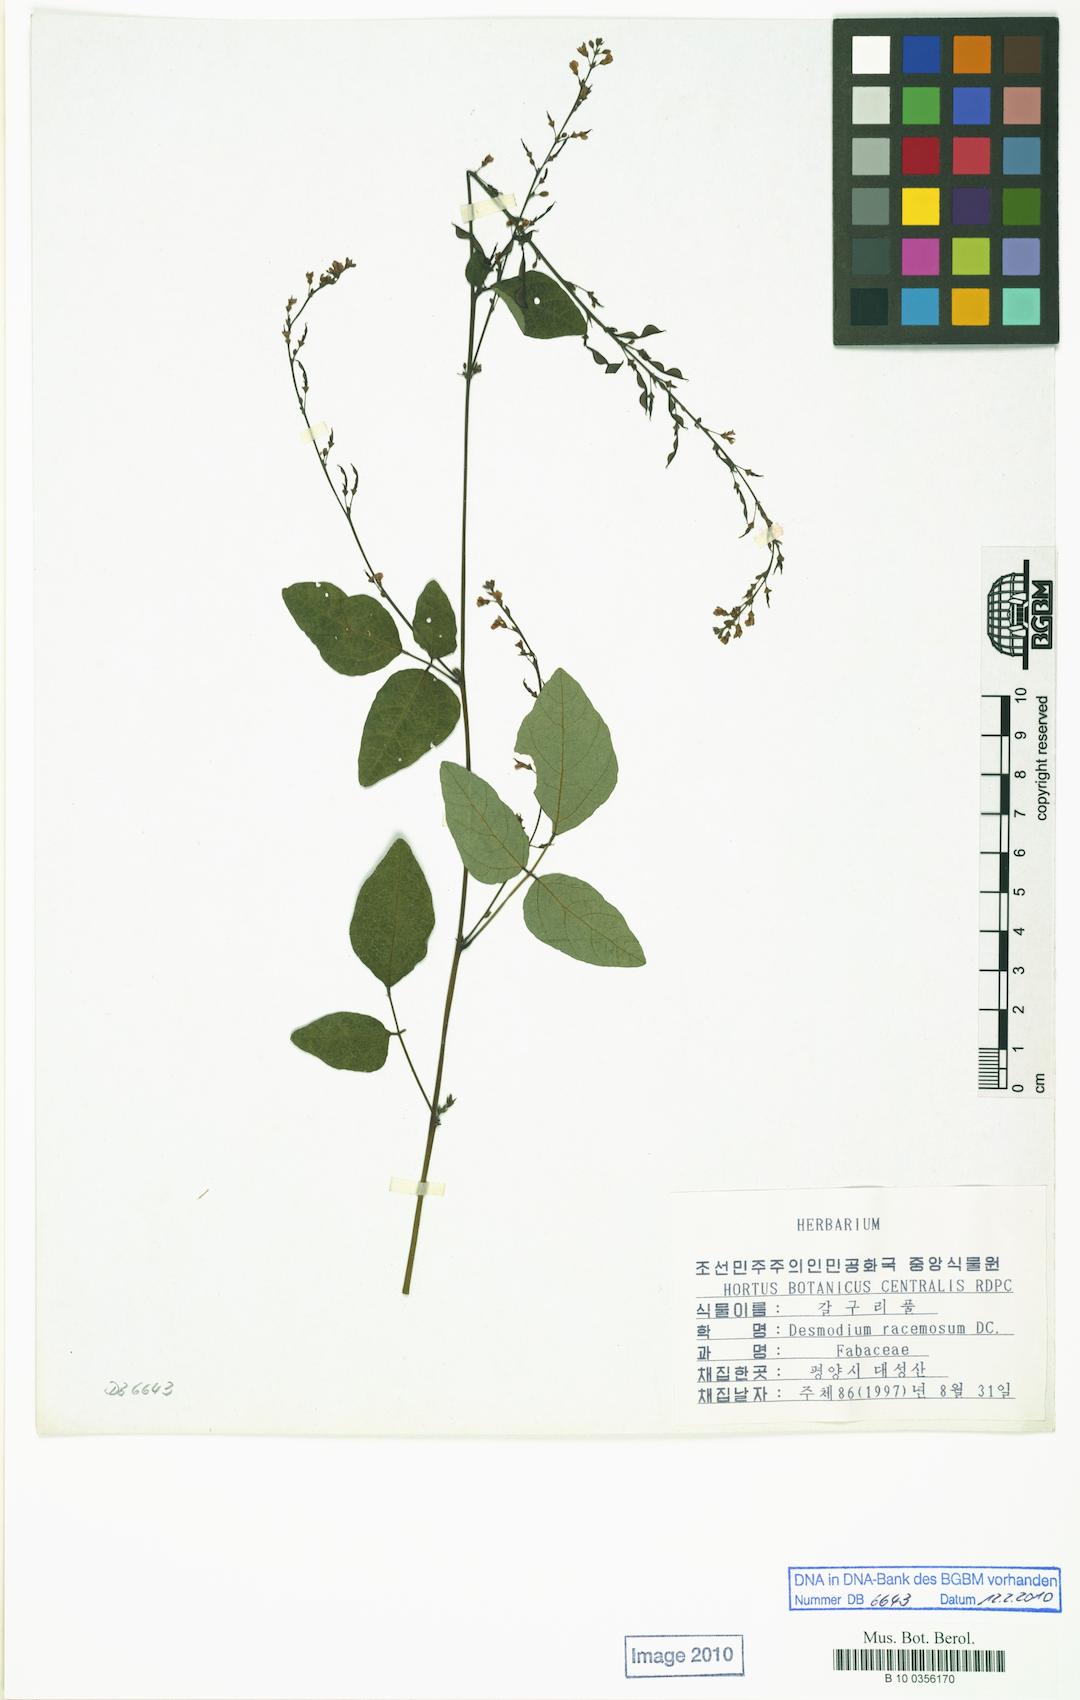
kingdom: Plantae
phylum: Tracheophyta
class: Magnoliopsida
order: Fabales
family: Fabaceae
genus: Hylodesmum
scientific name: Hylodesmum podocarpum
